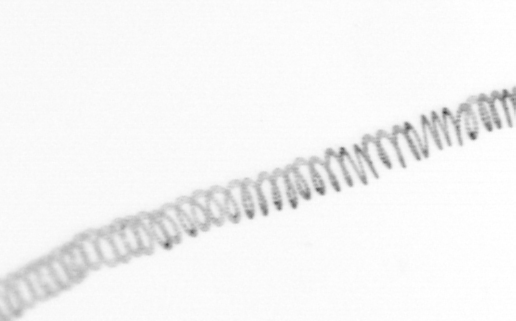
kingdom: Chromista
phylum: Ochrophyta
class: Bacillariophyceae
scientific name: Bacillariophyceae
